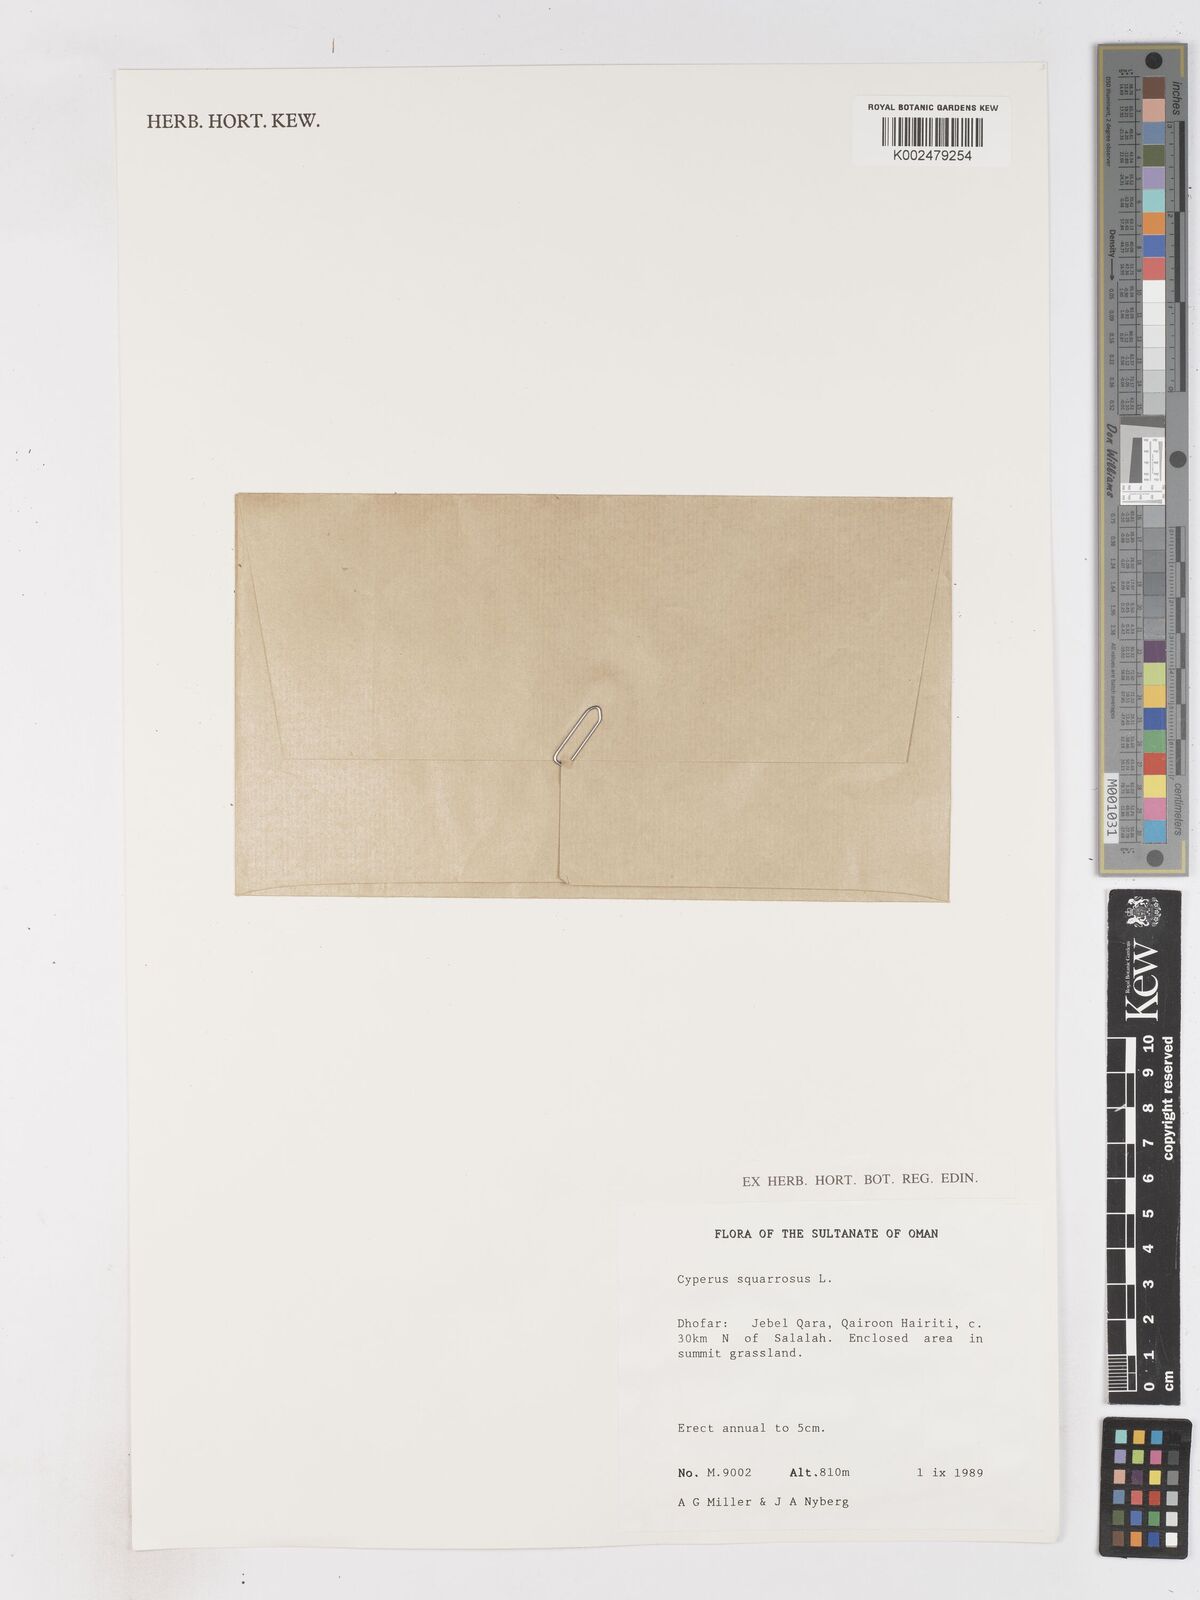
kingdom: Plantae
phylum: Tracheophyta
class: Liliopsida
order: Poales
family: Cyperaceae
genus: Cyperus
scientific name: Cyperus squarrosus
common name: Awned cyperus
